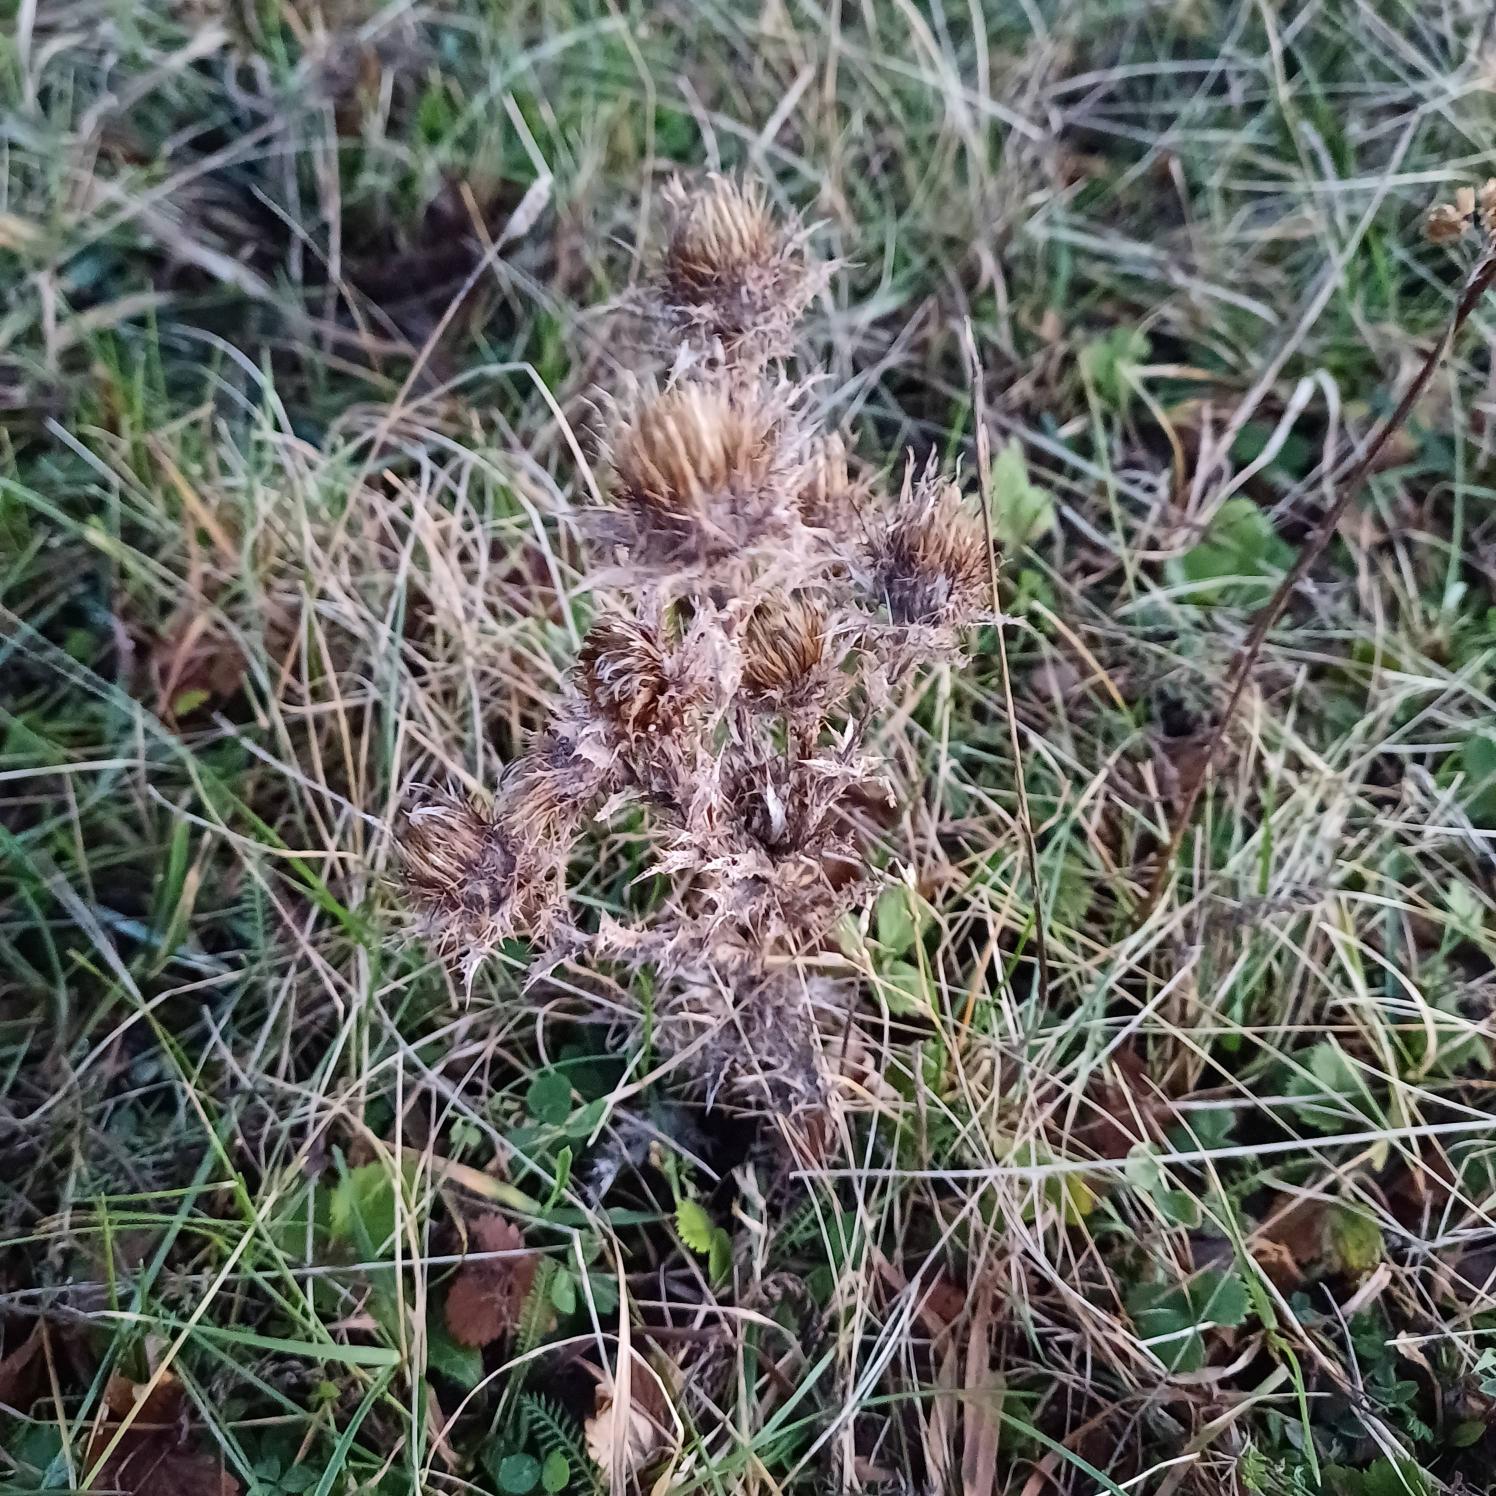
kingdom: Plantae
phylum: Tracheophyta
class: Magnoliopsida
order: Asterales
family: Asteraceae
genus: Carlina
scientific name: Carlina vulgaris
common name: Bakketidsel
